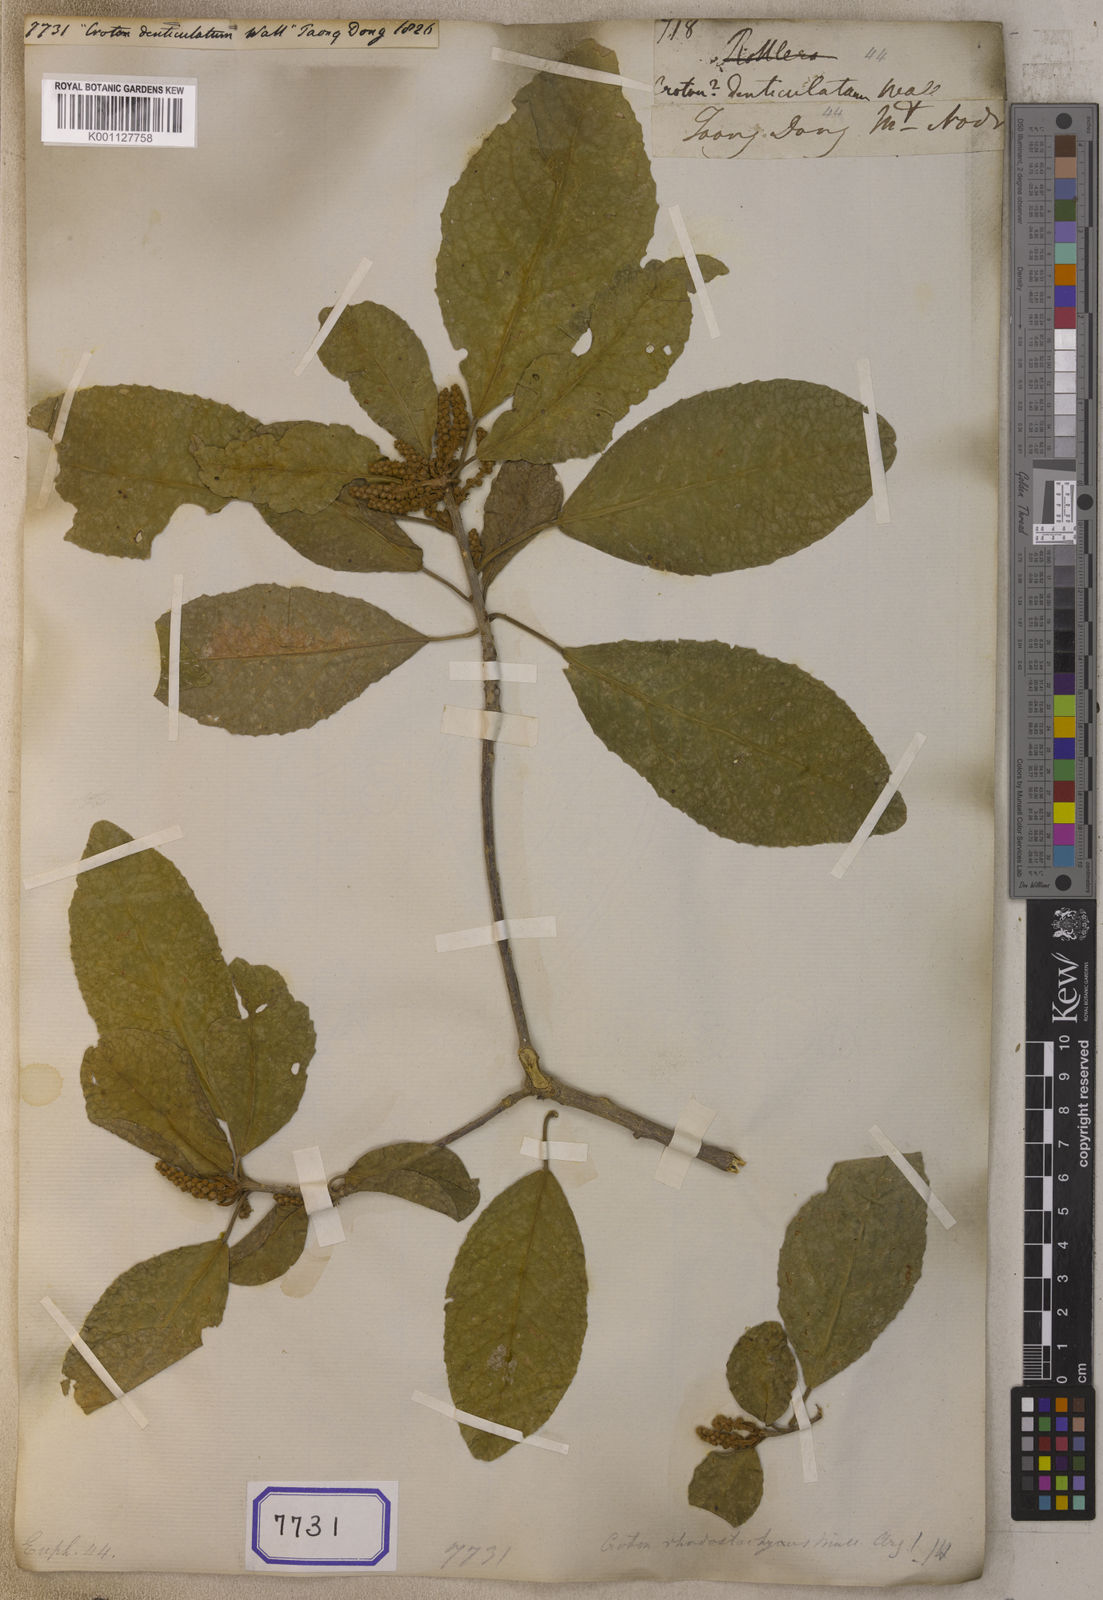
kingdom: Plantae
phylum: Tracheophyta
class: Magnoliopsida
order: Malpighiales
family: Euphorbiaceae
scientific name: Euphorbiaceae
